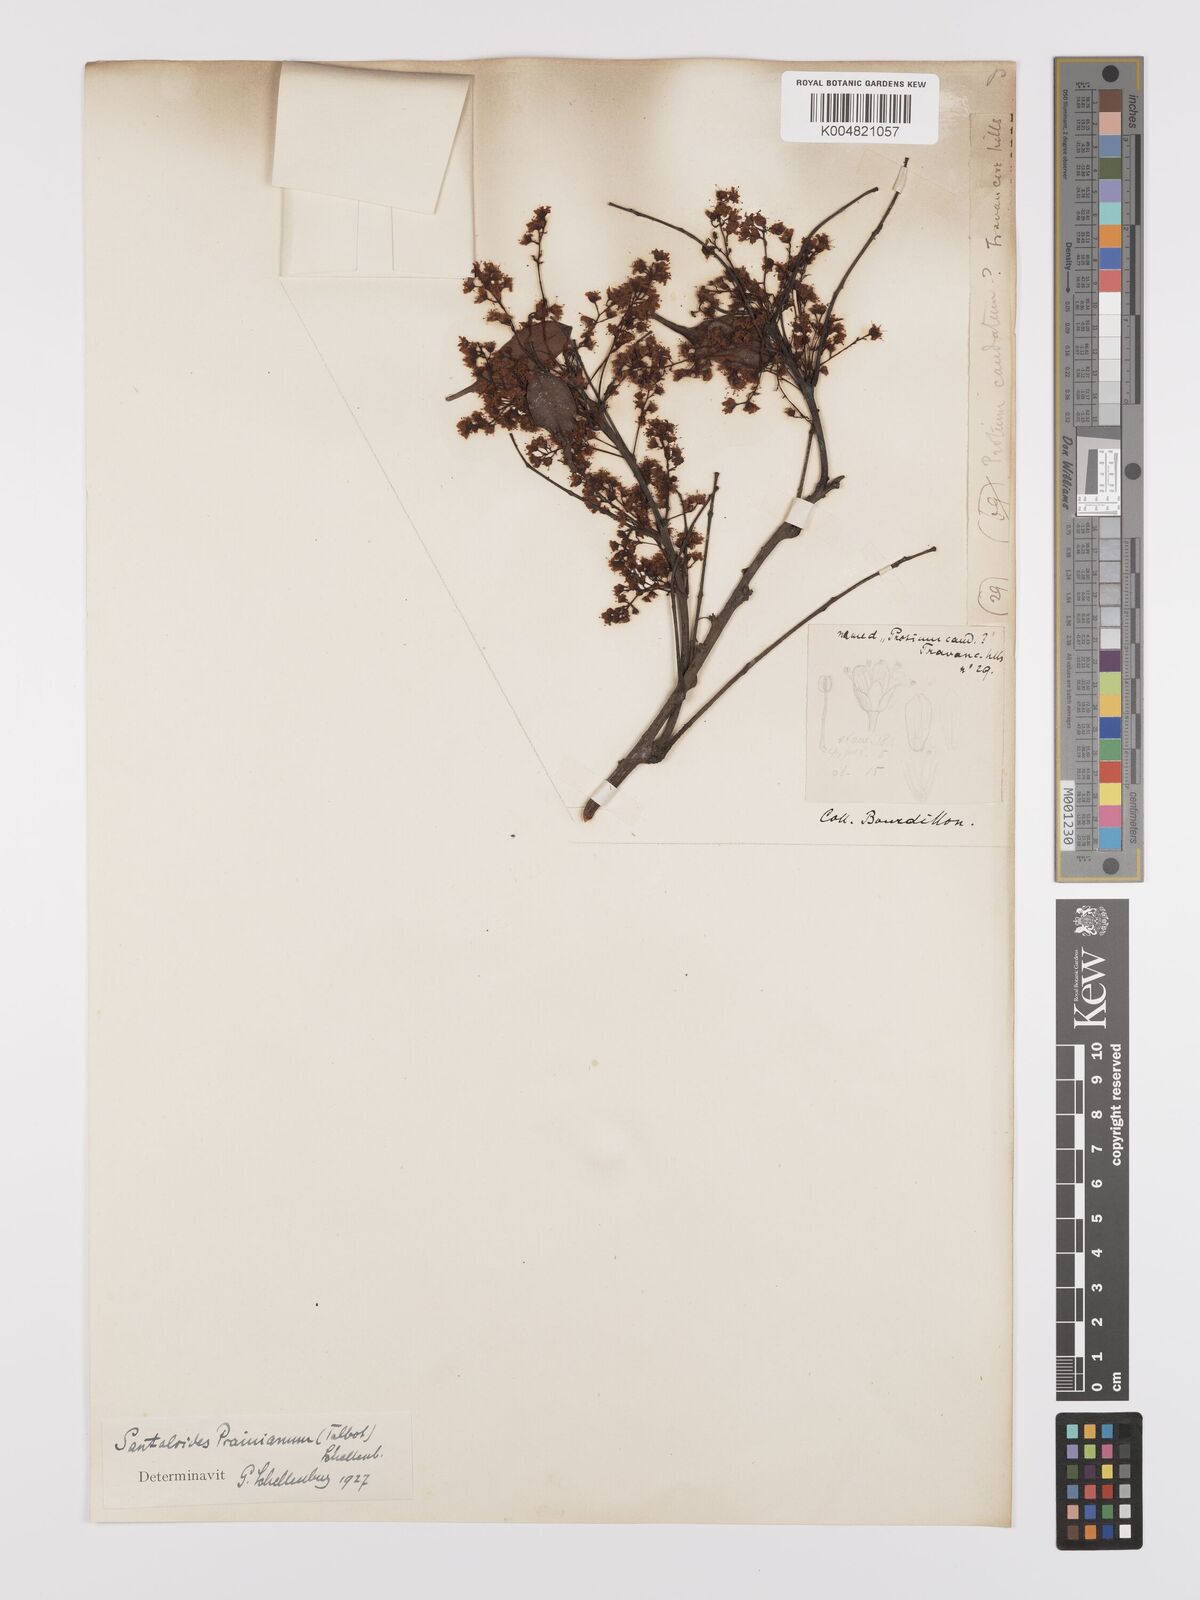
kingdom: Plantae
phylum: Tracheophyta
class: Magnoliopsida
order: Oxalidales
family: Connaraceae
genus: Rourea
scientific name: Rourea prainiana
